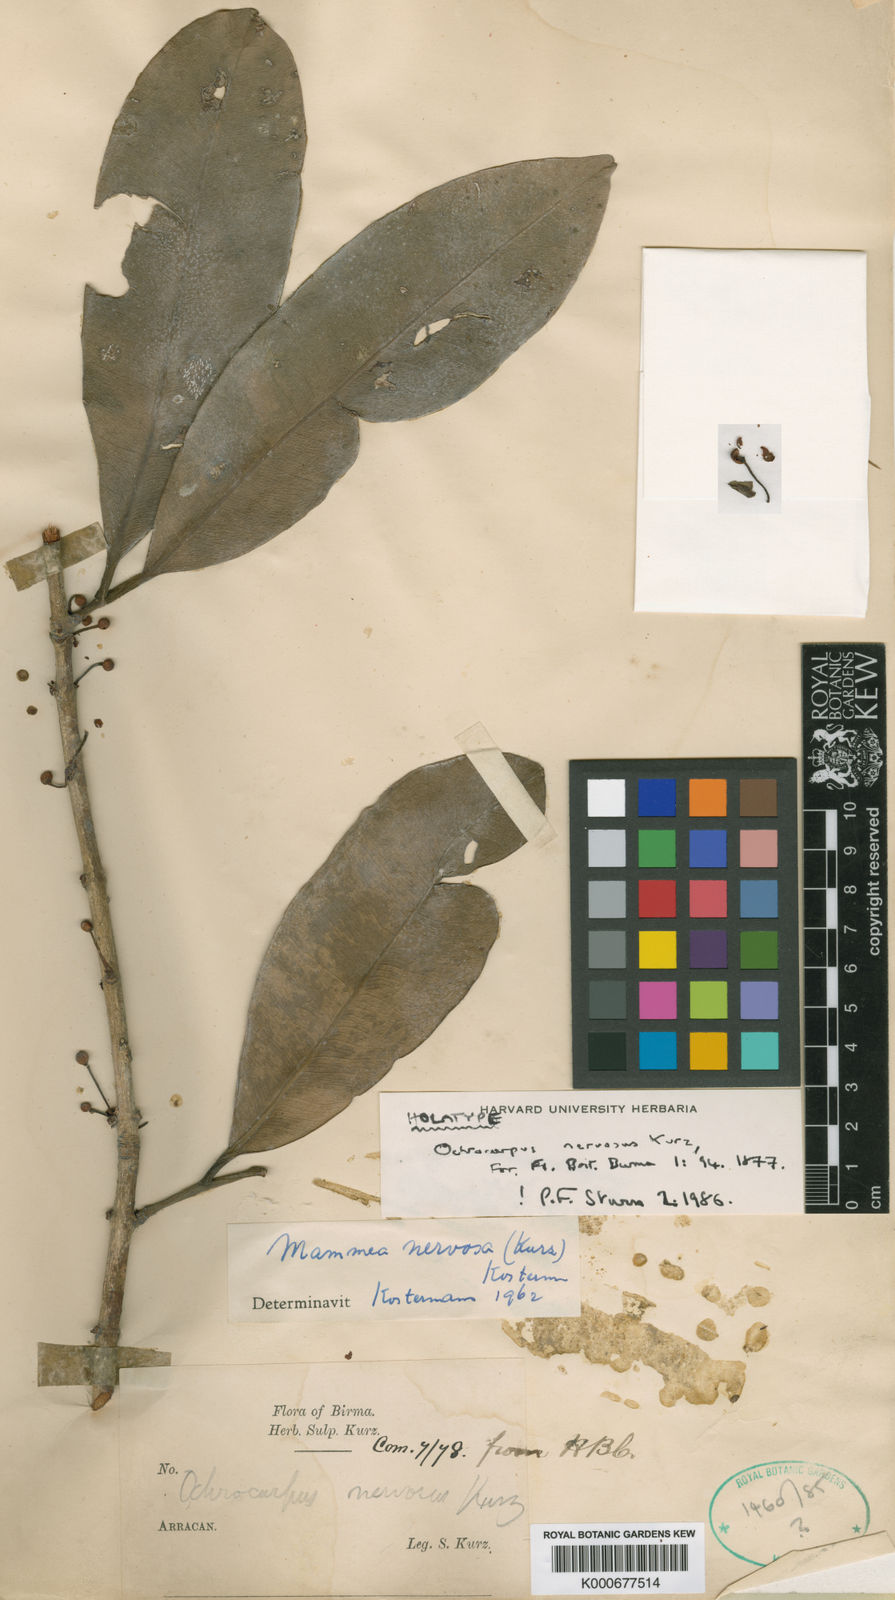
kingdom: Plantae
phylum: Tracheophyta
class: Magnoliopsida
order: Malpighiales
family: Calophyllaceae
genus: Mammea
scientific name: Mammea siamensis
